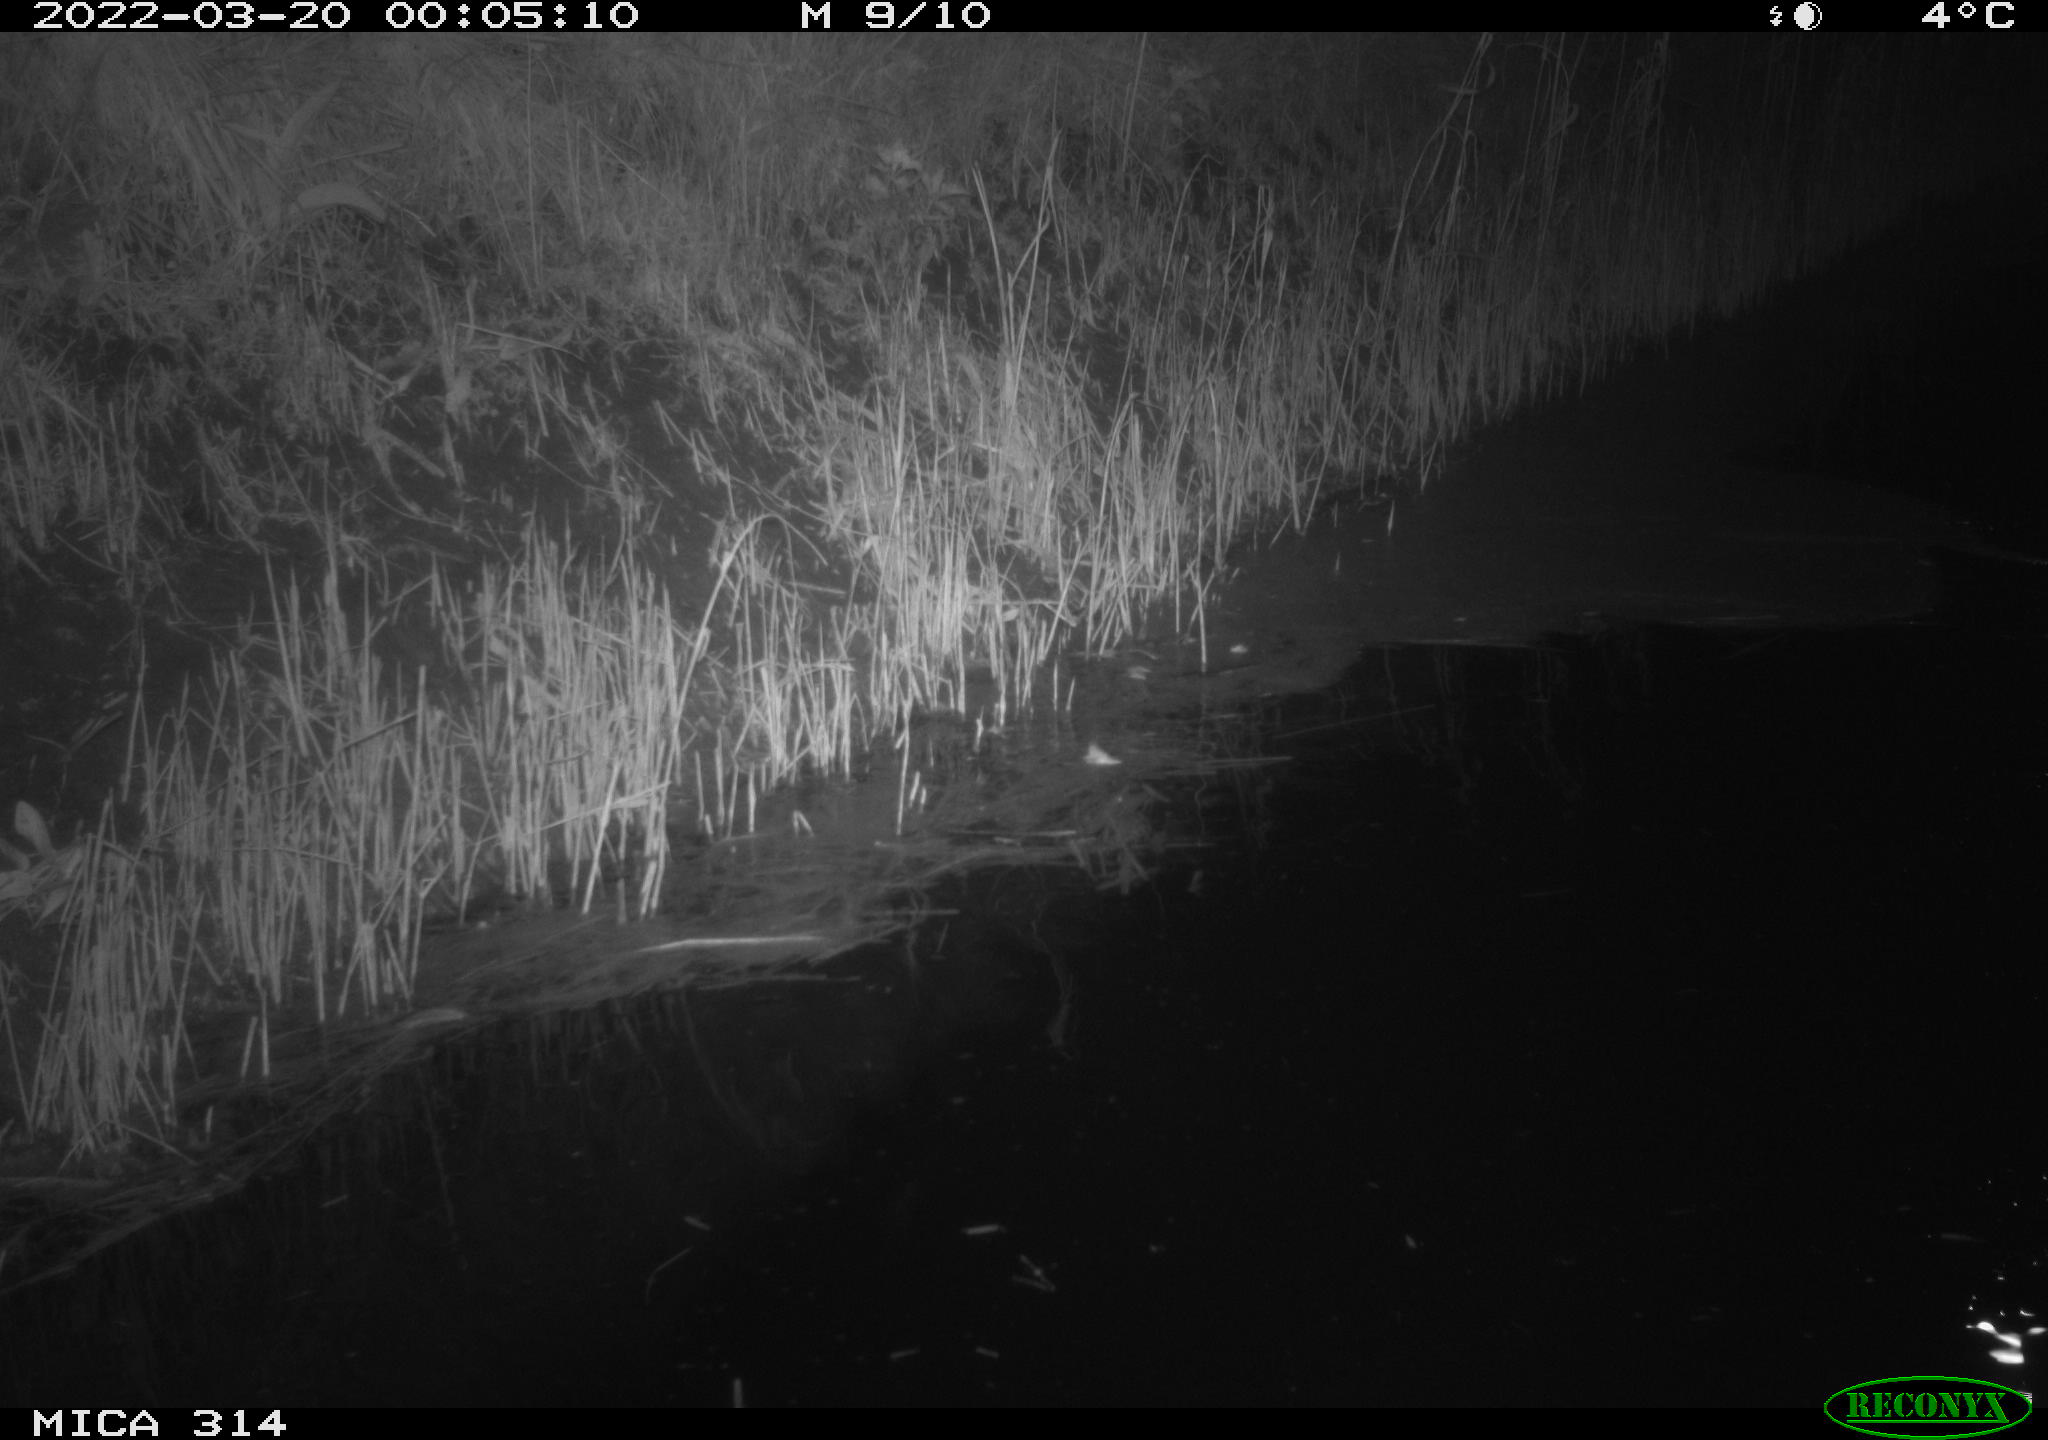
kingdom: Animalia
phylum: Chordata
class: Aves
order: Anseriformes
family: Anatidae
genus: Anas
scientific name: Anas platyrhynchos
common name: Mallard
